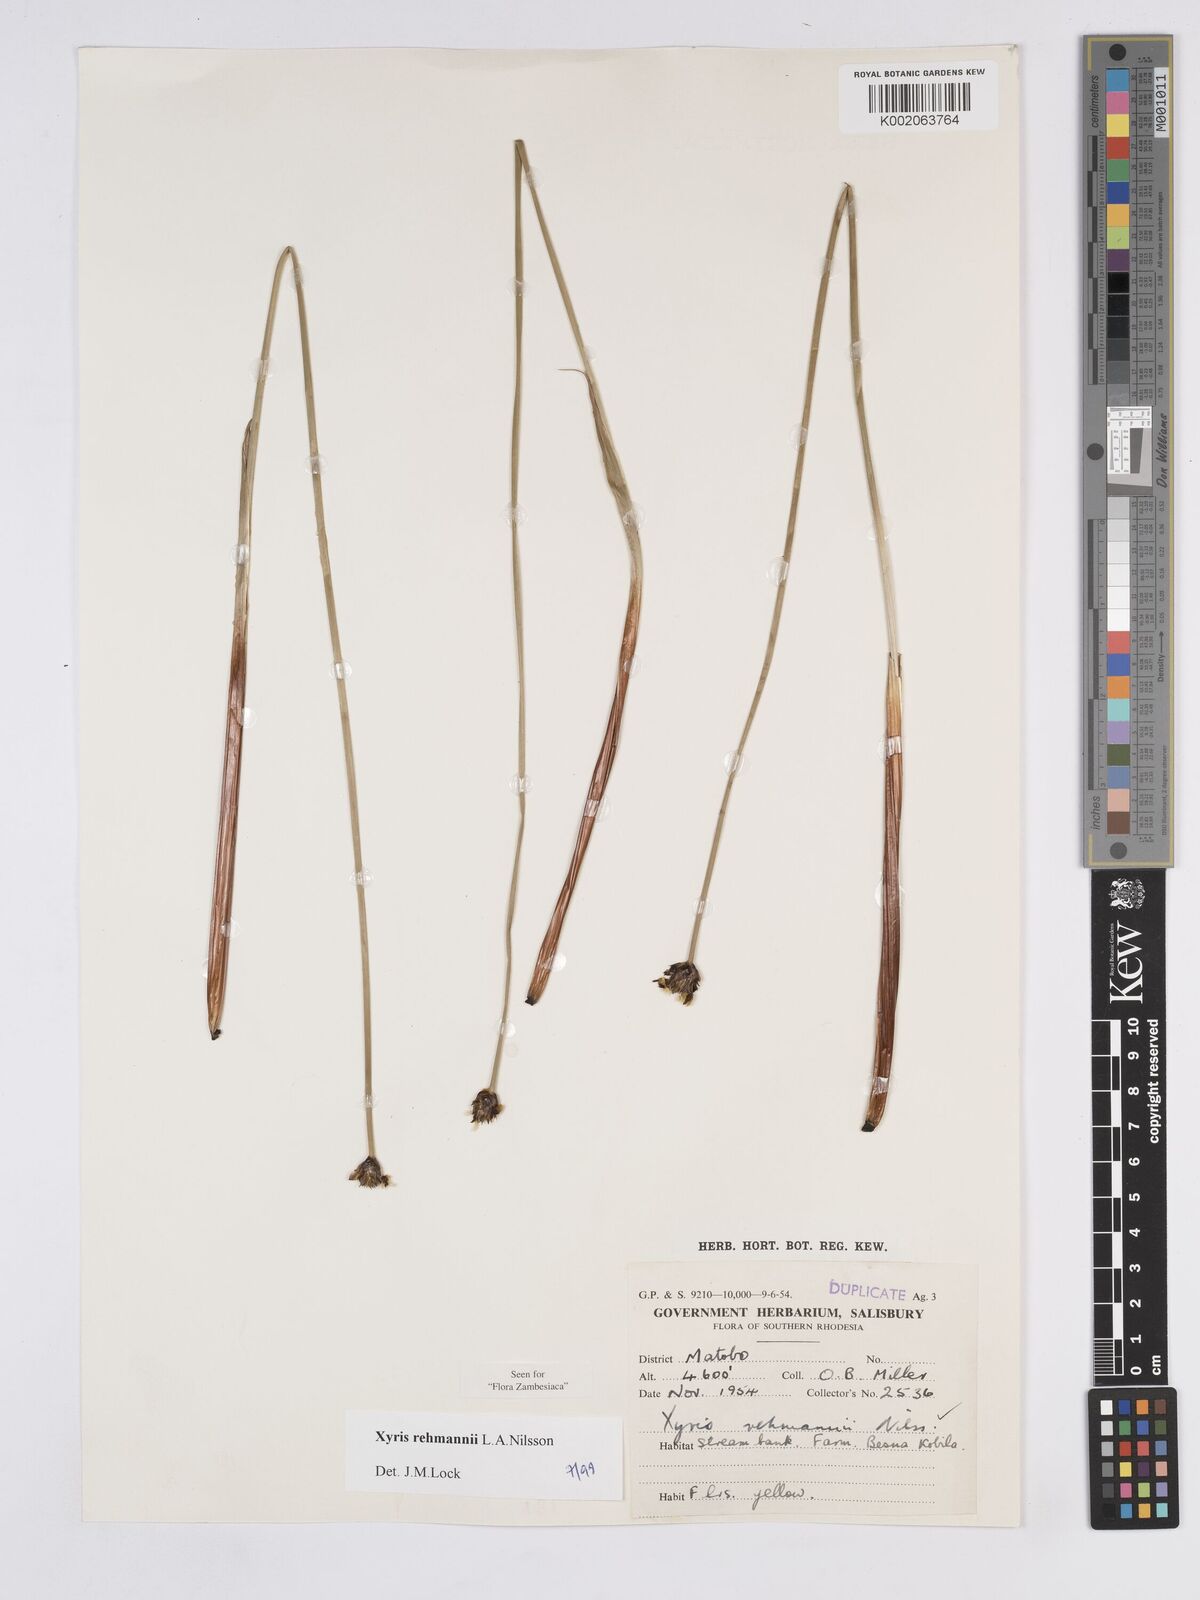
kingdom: Plantae
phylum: Tracheophyta
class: Liliopsida
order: Poales
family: Xyridaceae
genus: Xyris
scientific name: Xyris rehmannii
